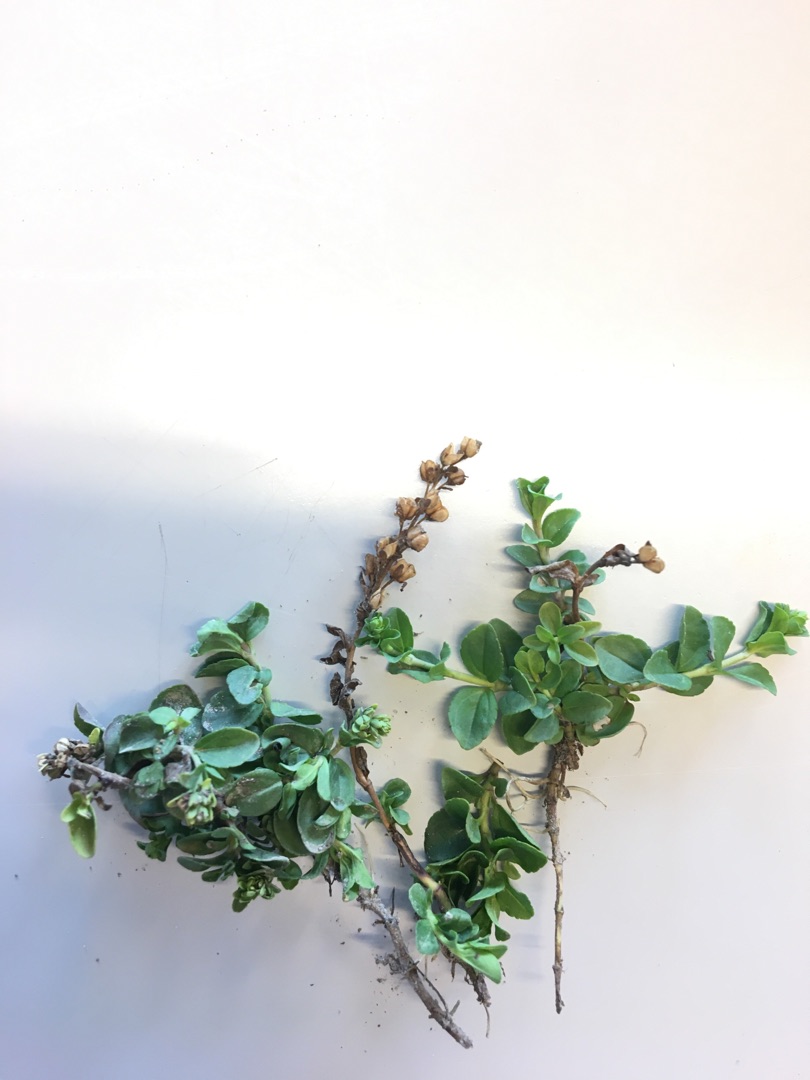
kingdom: Plantae
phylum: Tracheophyta
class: Magnoliopsida
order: Lamiales
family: Plantaginaceae
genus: Veronica
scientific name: Veronica serpyllifolia
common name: Glat ærenpris
